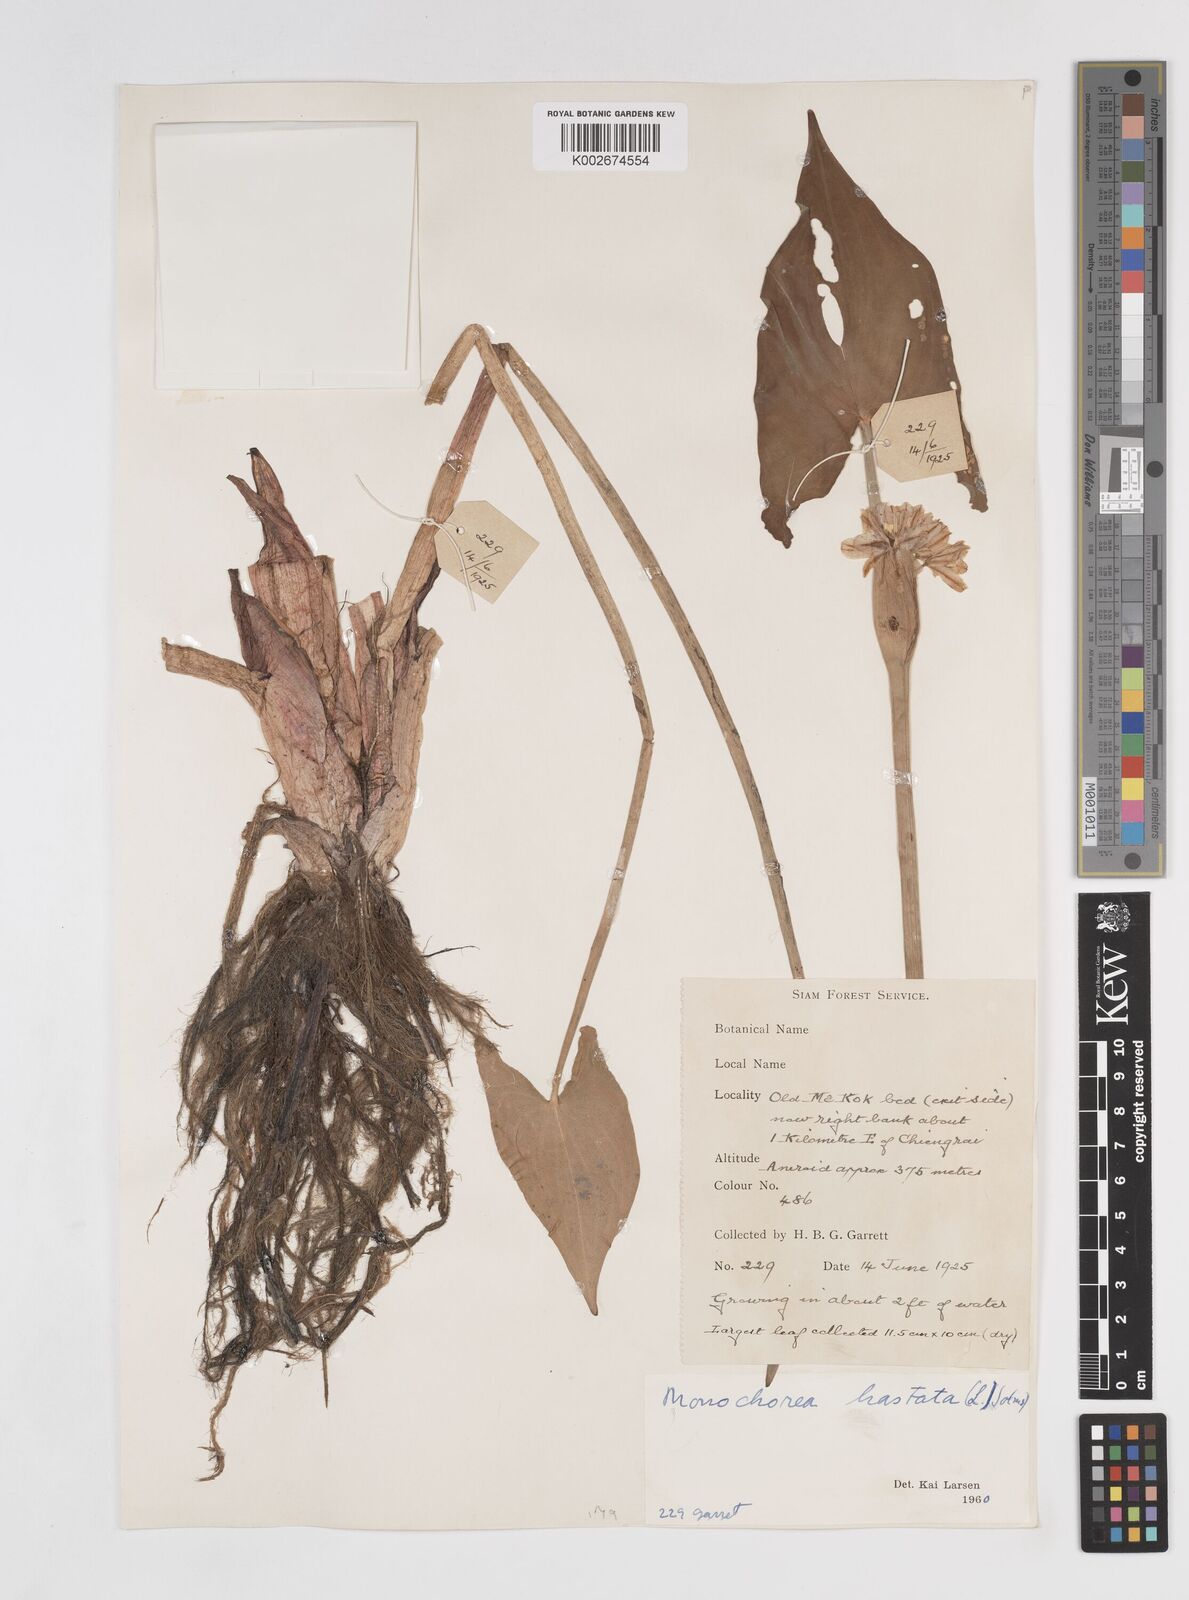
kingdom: Plantae
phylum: Tracheophyta
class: Liliopsida
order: Commelinales
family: Pontederiaceae
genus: Pontederia
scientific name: Pontederia hastata
